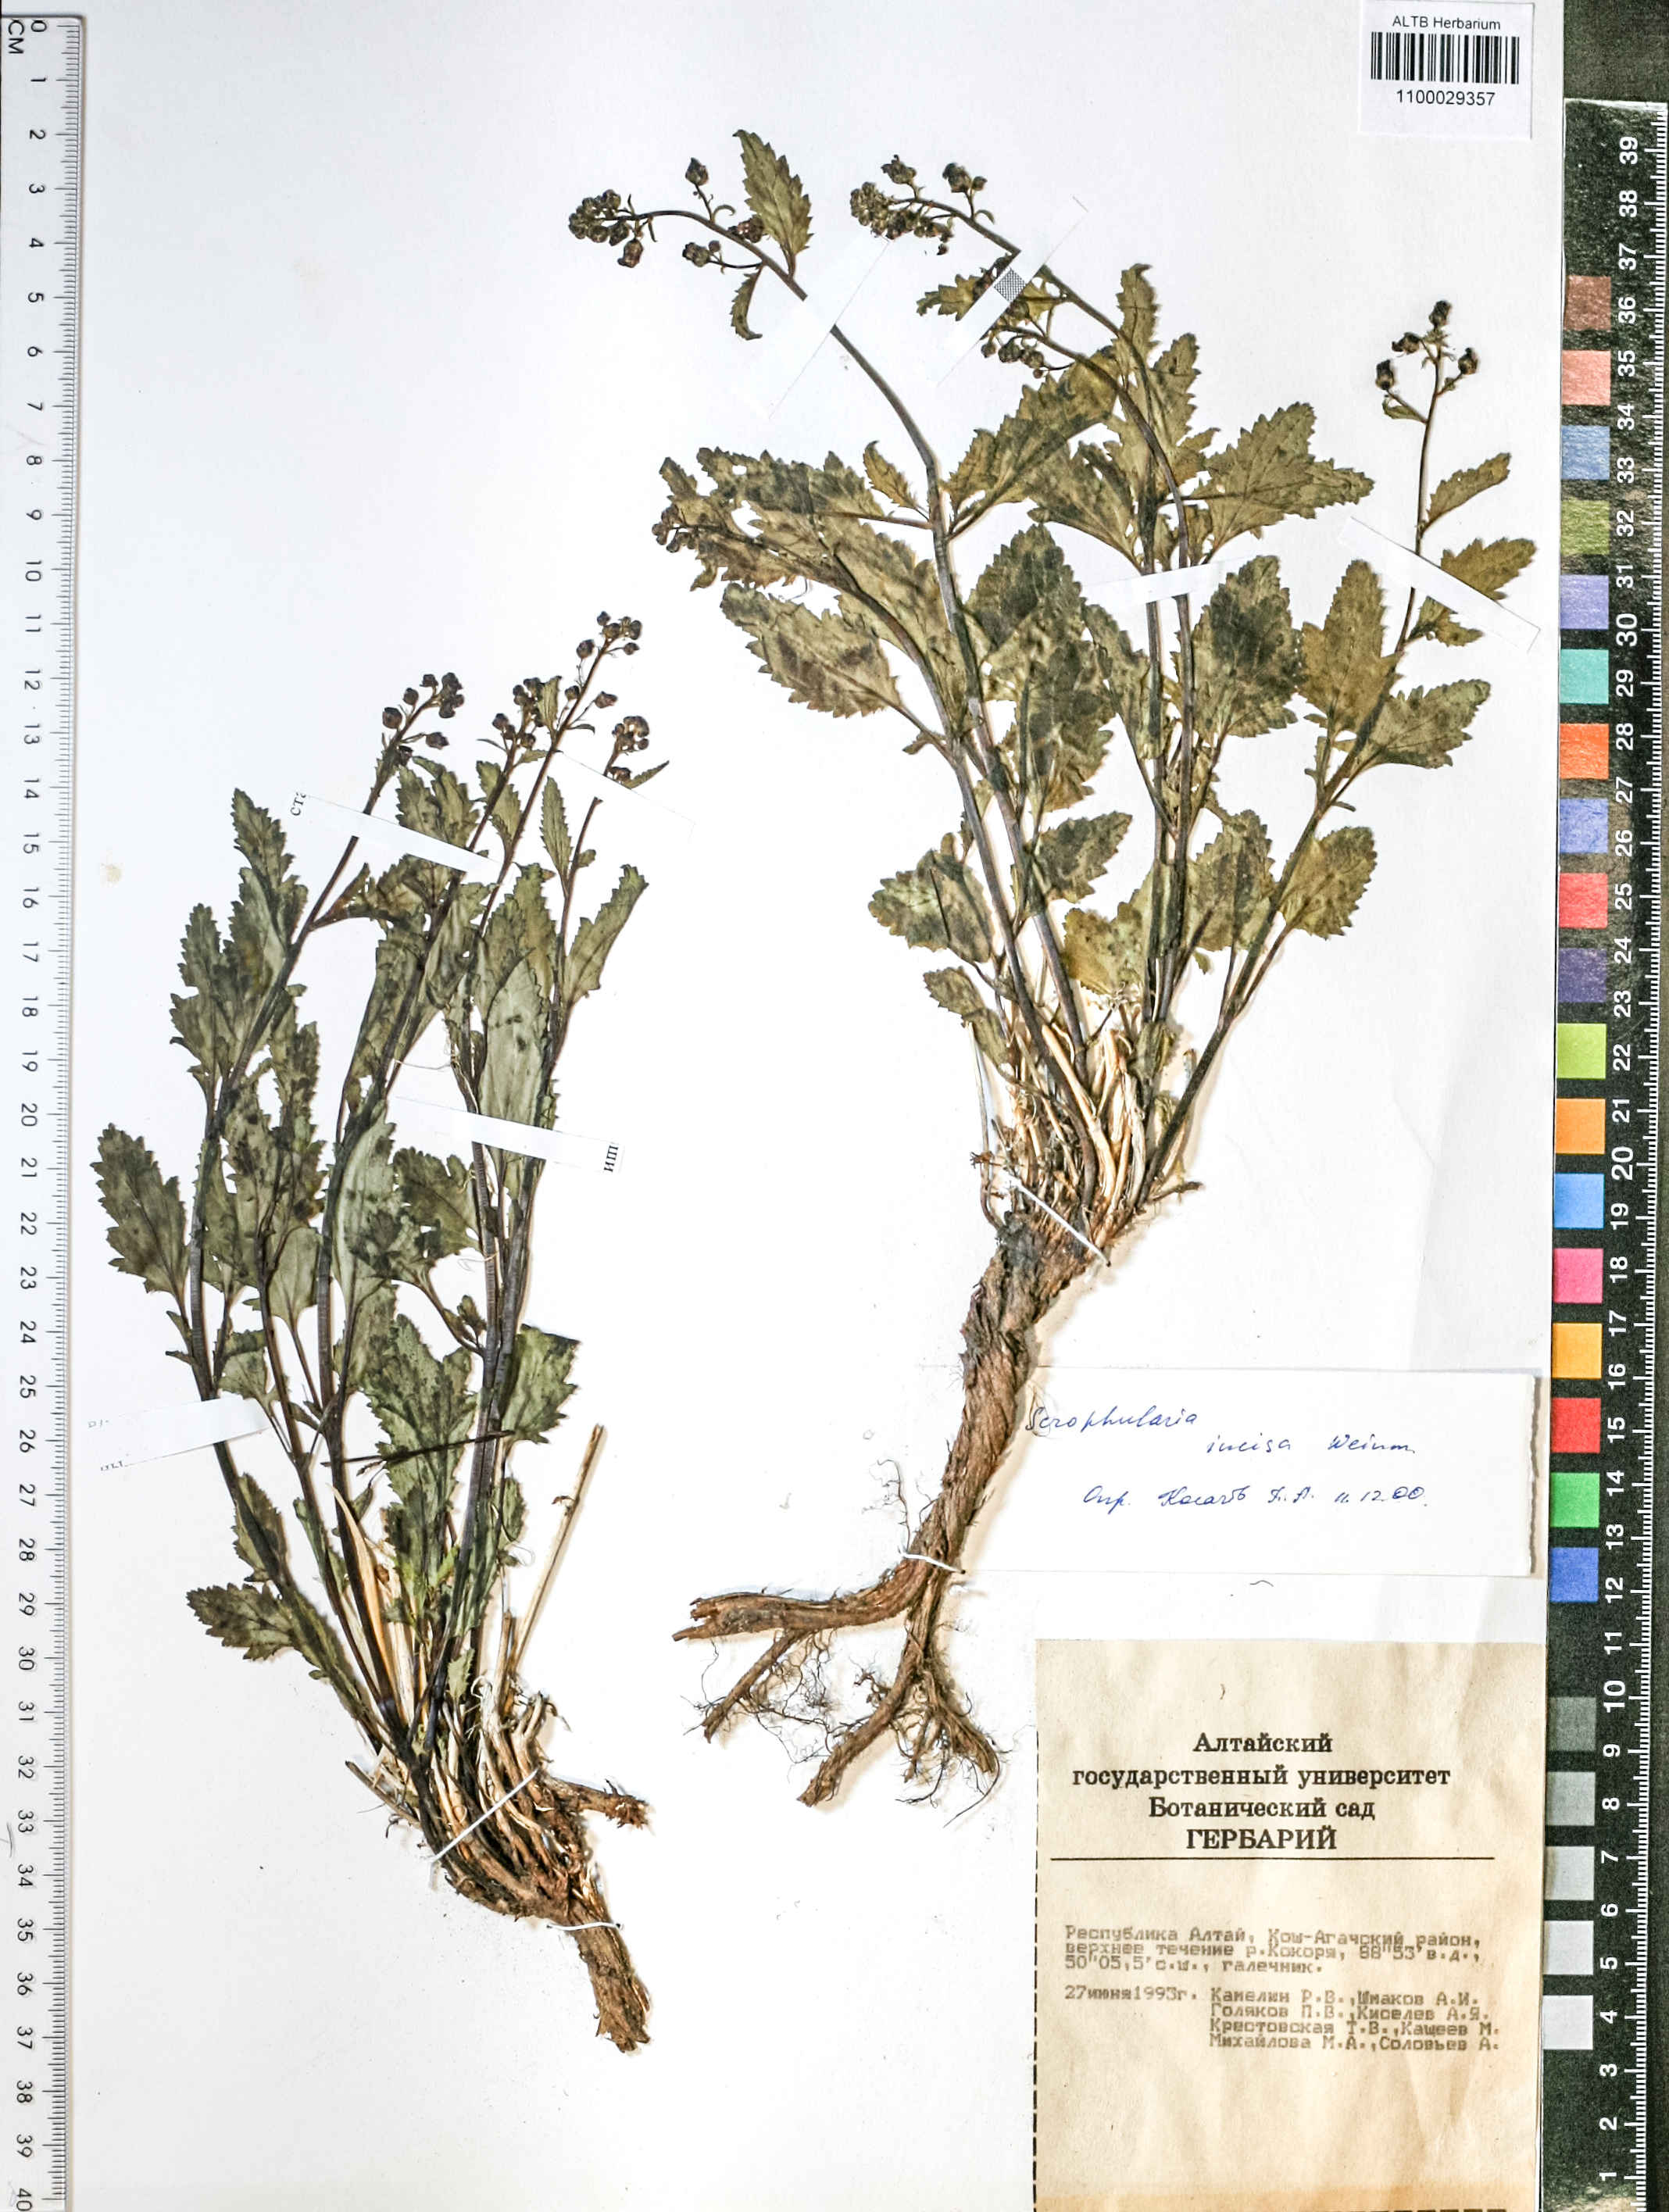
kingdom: Plantae
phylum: Tracheophyta
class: Magnoliopsida
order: Lamiales
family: Scrophulariaceae
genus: Scrophularia
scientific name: Scrophularia incisa
